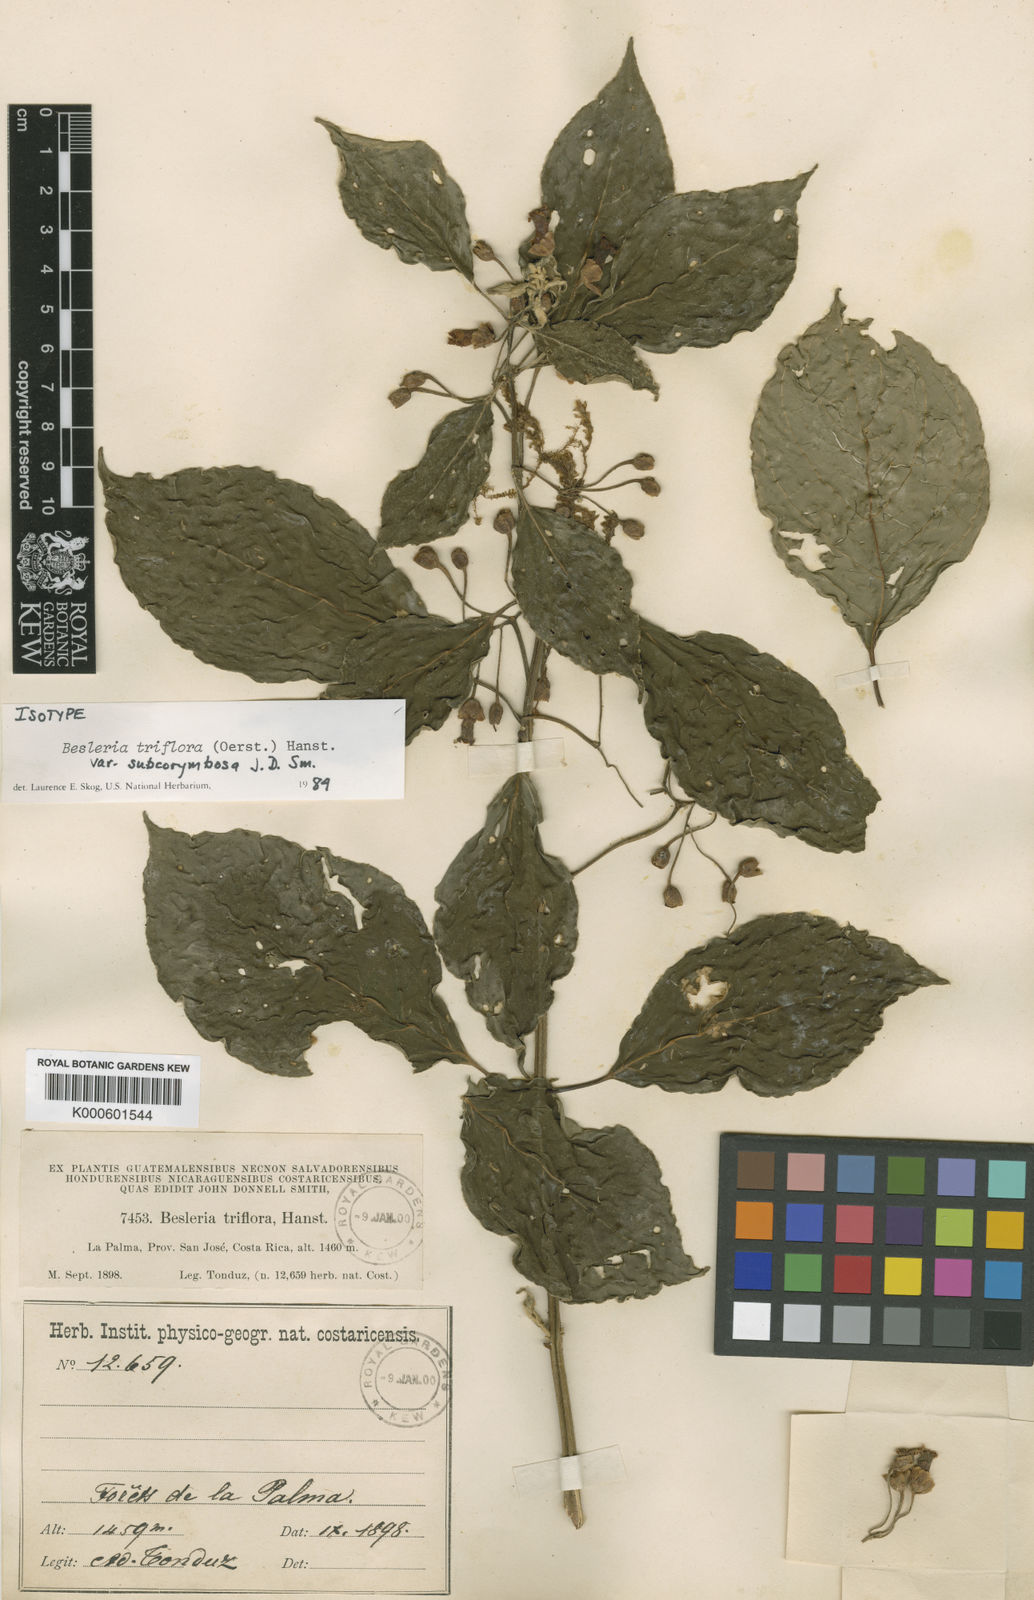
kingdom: Plantae
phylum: Tracheophyta
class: Magnoliopsida
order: Lamiales
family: Gesneriaceae
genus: Besleria
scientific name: Besleria triflora
